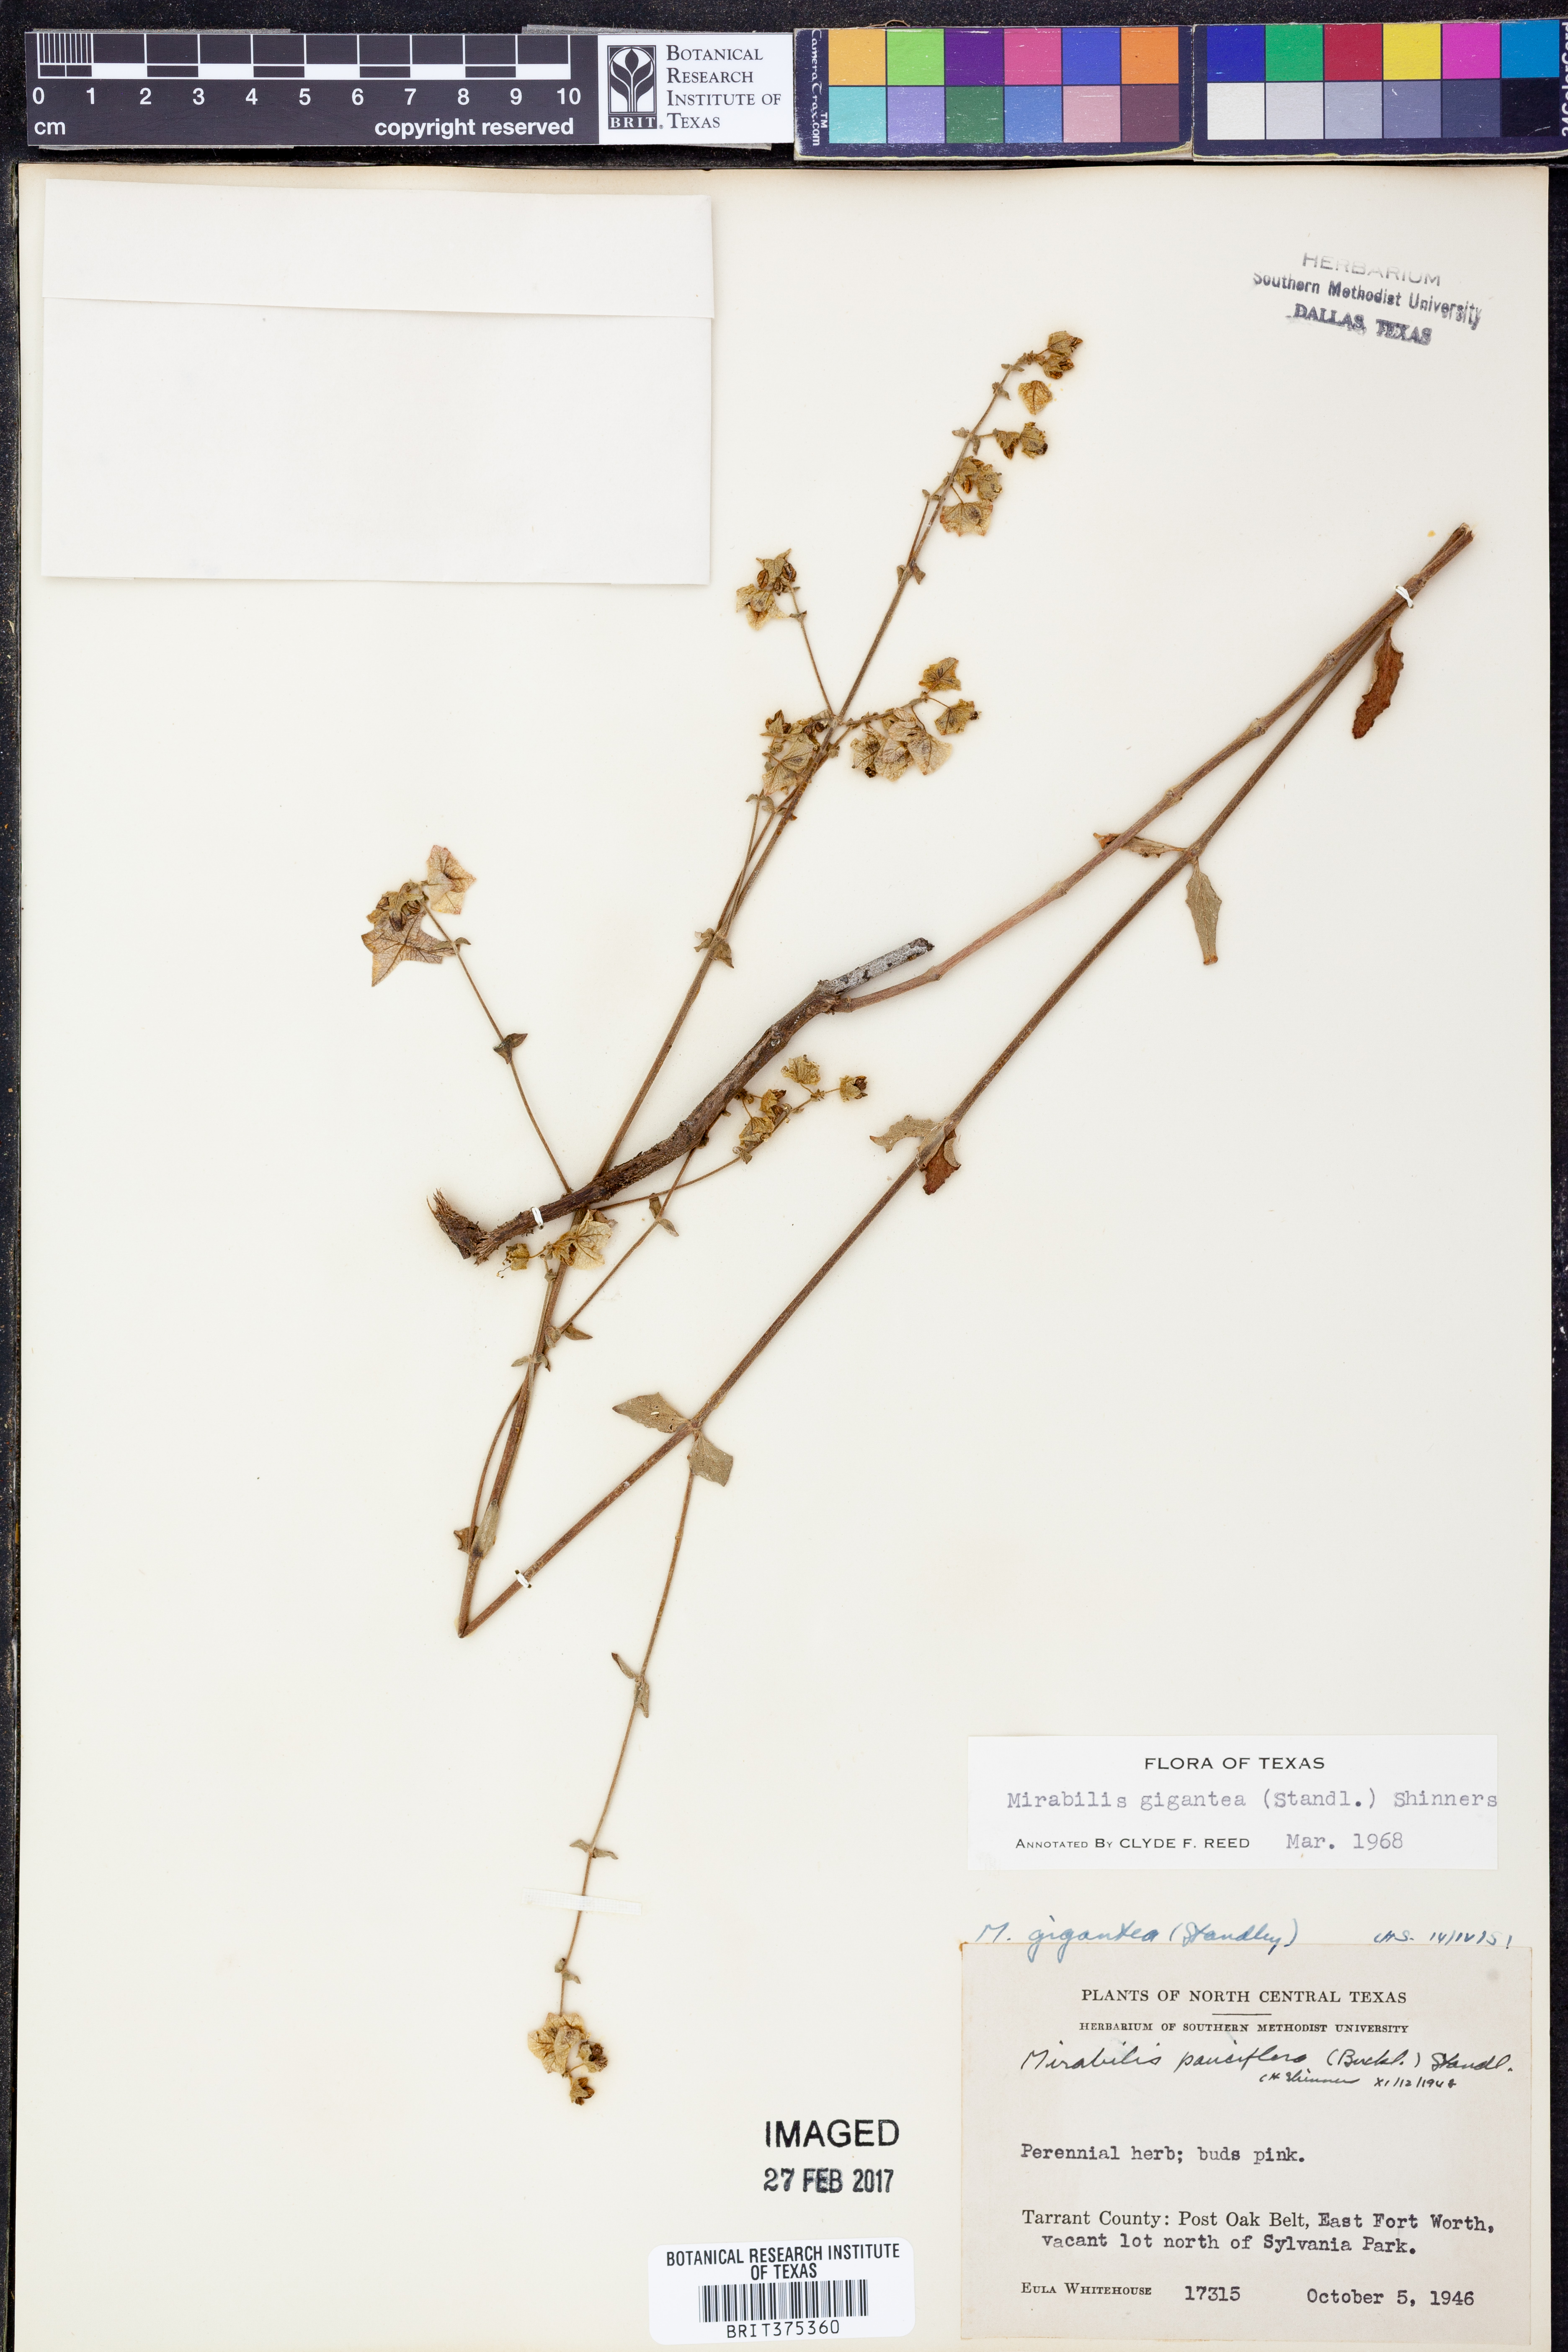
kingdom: Plantae
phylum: Tracheophyta
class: Magnoliopsida
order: Caryophyllales
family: Nyctaginaceae
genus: Mirabilis
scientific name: Mirabilis gigantea
